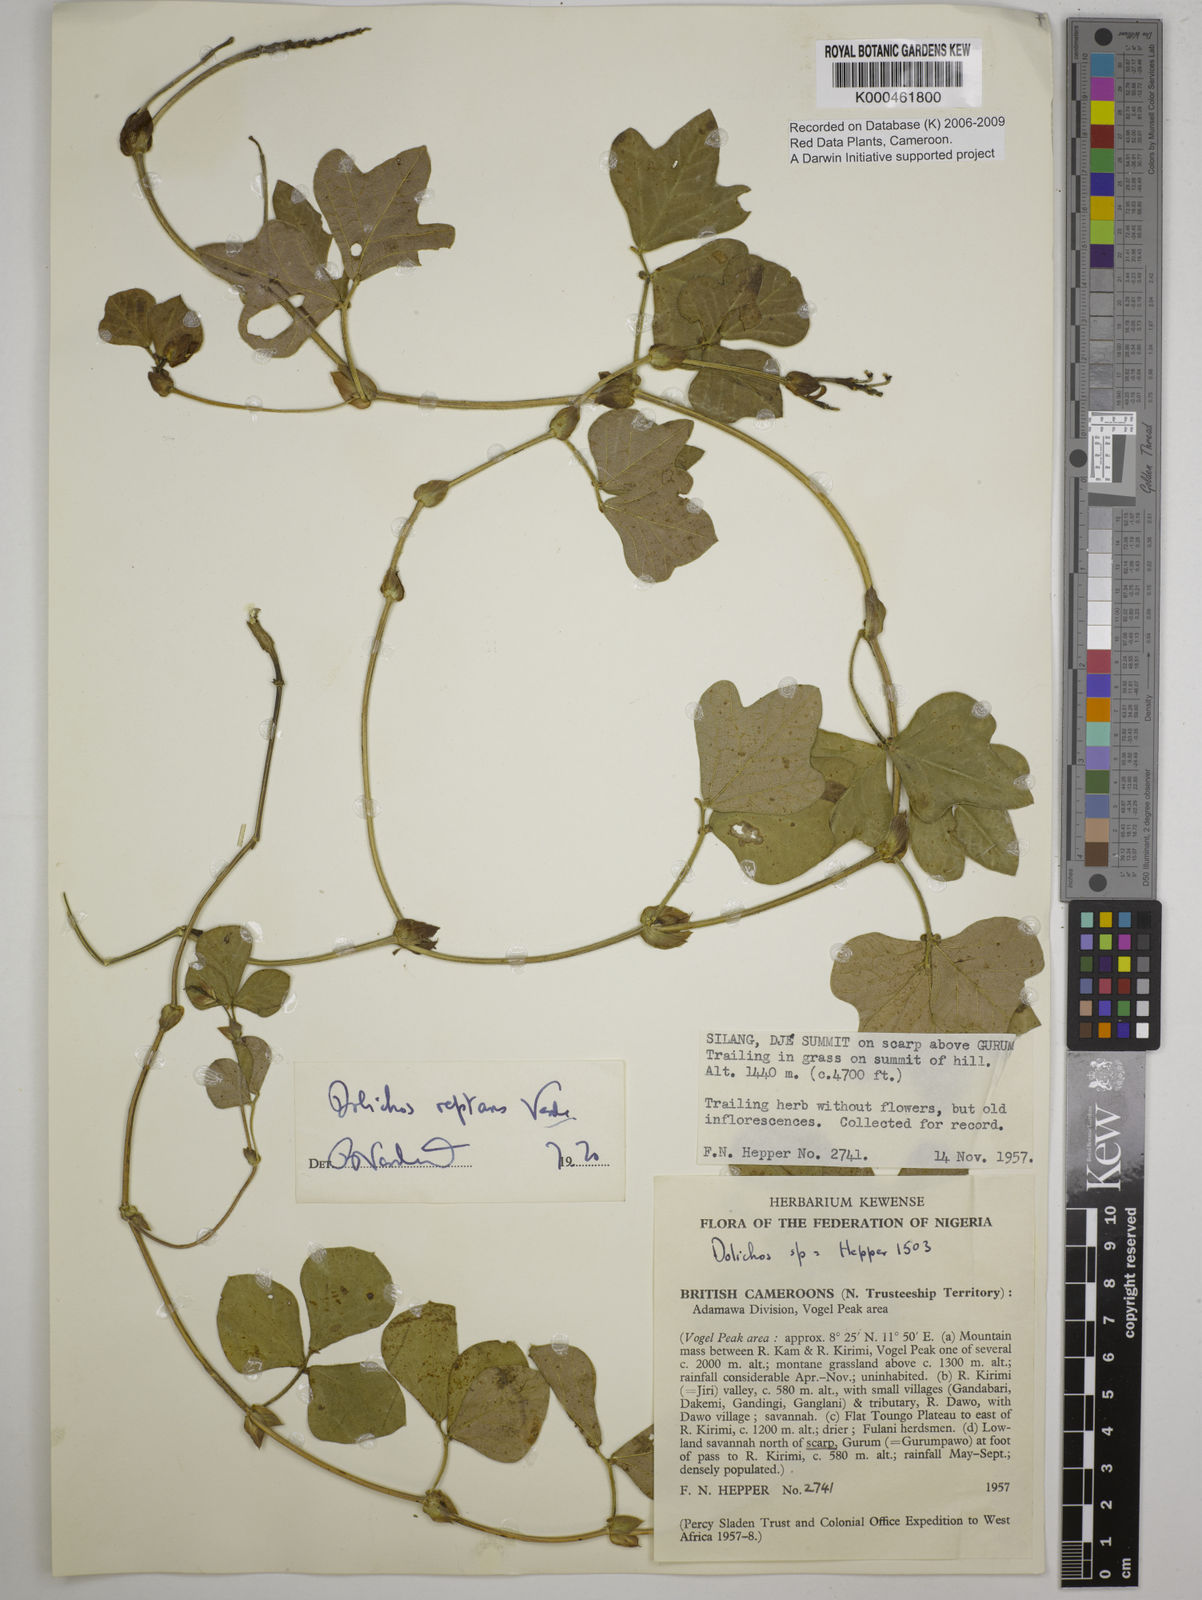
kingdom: Plantae
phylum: Tracheophyta
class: Magnoliopsida
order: Fabales
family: Fabaceae
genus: Dolichos
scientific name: Dolichos reptans
